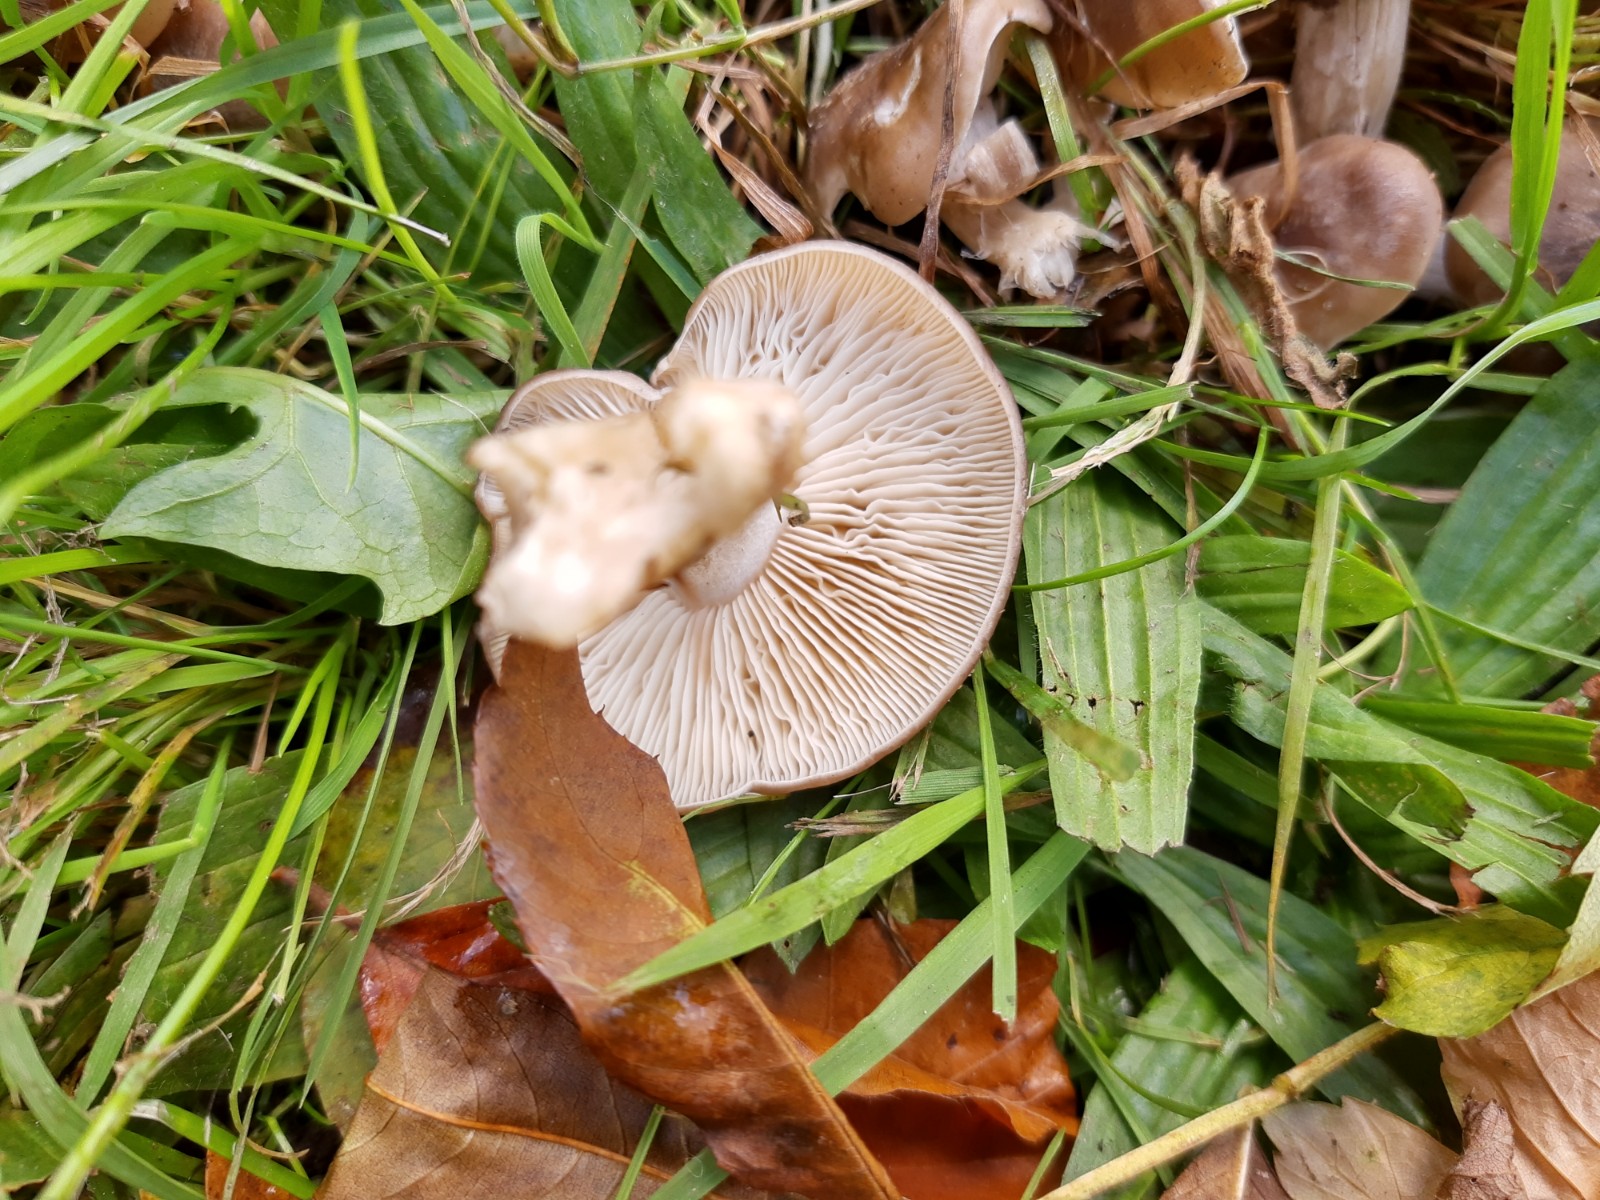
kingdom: Fungi
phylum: Basidiomycota
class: Agaricomycetes
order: Agaricales
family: Lyophyllaceae
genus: Lyophyllum
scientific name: Lyophyllum decastes
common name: røggrå gråblad
